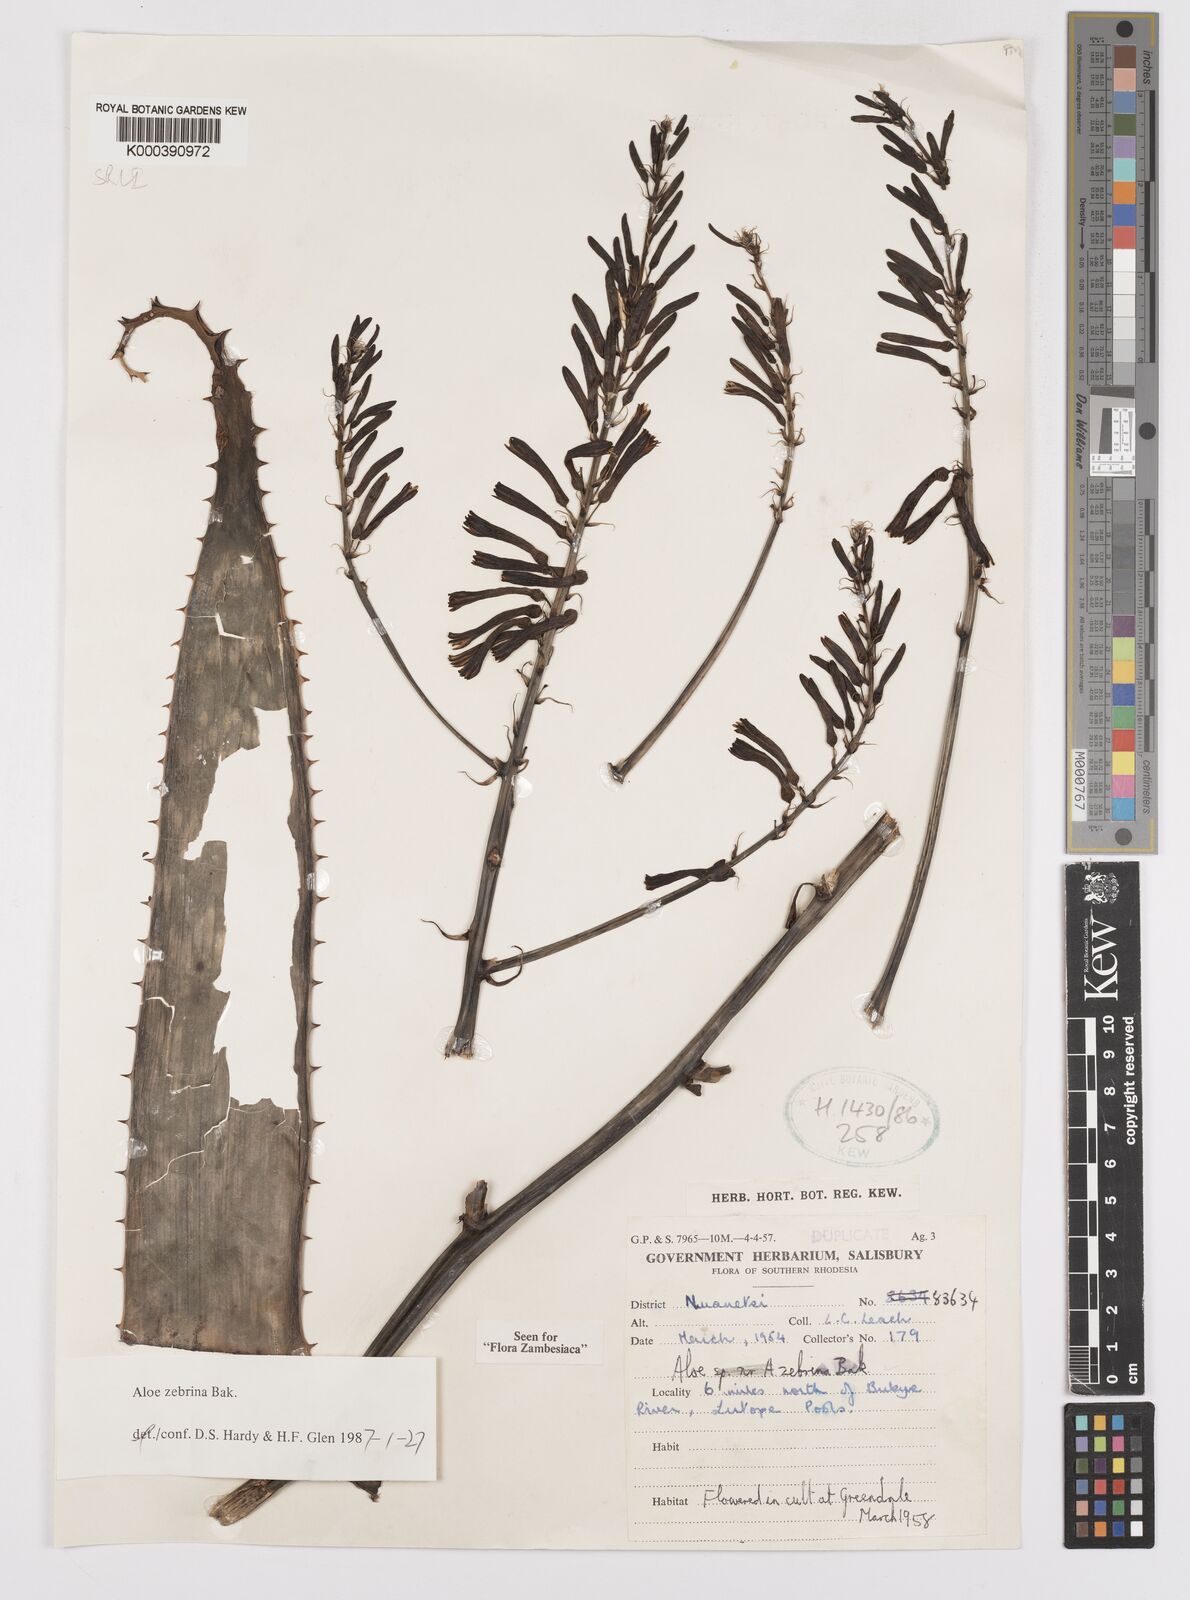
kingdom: Plantae
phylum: Tracheophyta
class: Liliopsida
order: Asparagales
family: Asphodelaceae
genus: Aloe
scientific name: Aloe zebrina
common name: Zebra-leaf aloe
